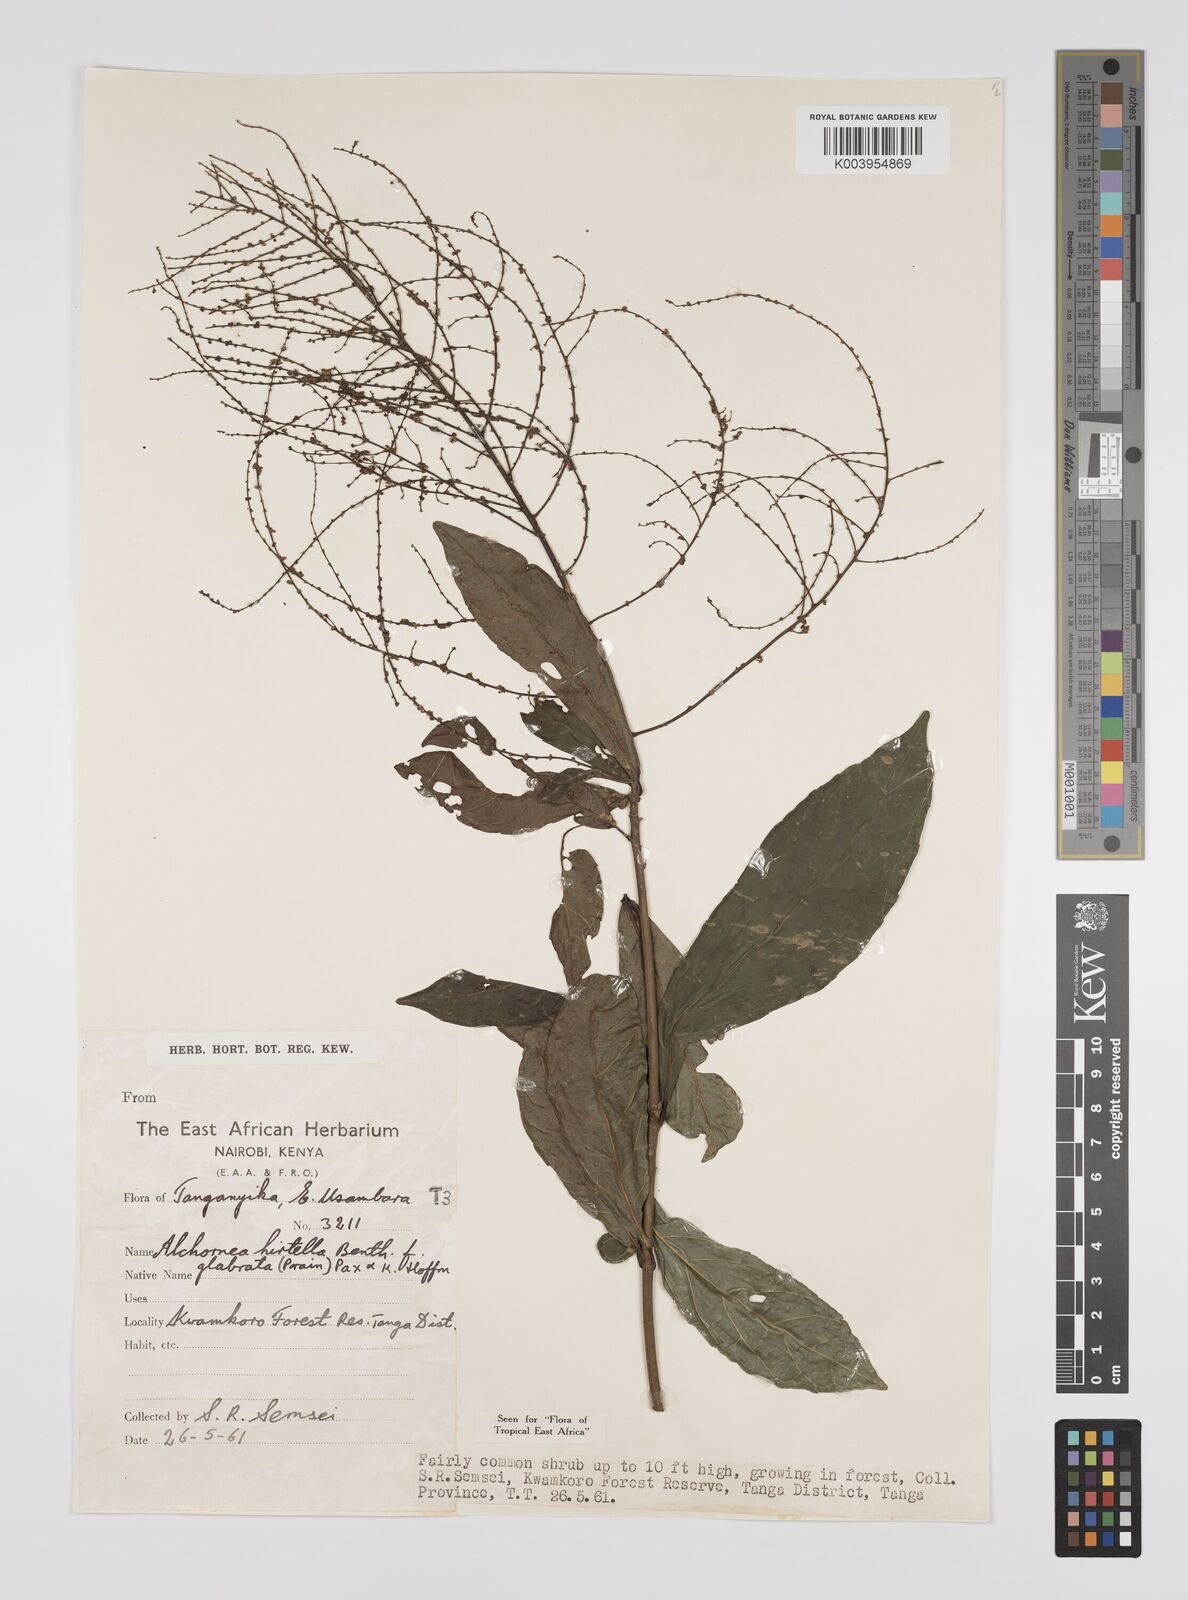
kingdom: Plantae
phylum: Tracheophyta
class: Magnoliopsida
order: Malpighiales
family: Euphorbiaceae
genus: Alchornea
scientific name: Alchornea hirtella
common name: Forest bead-string
